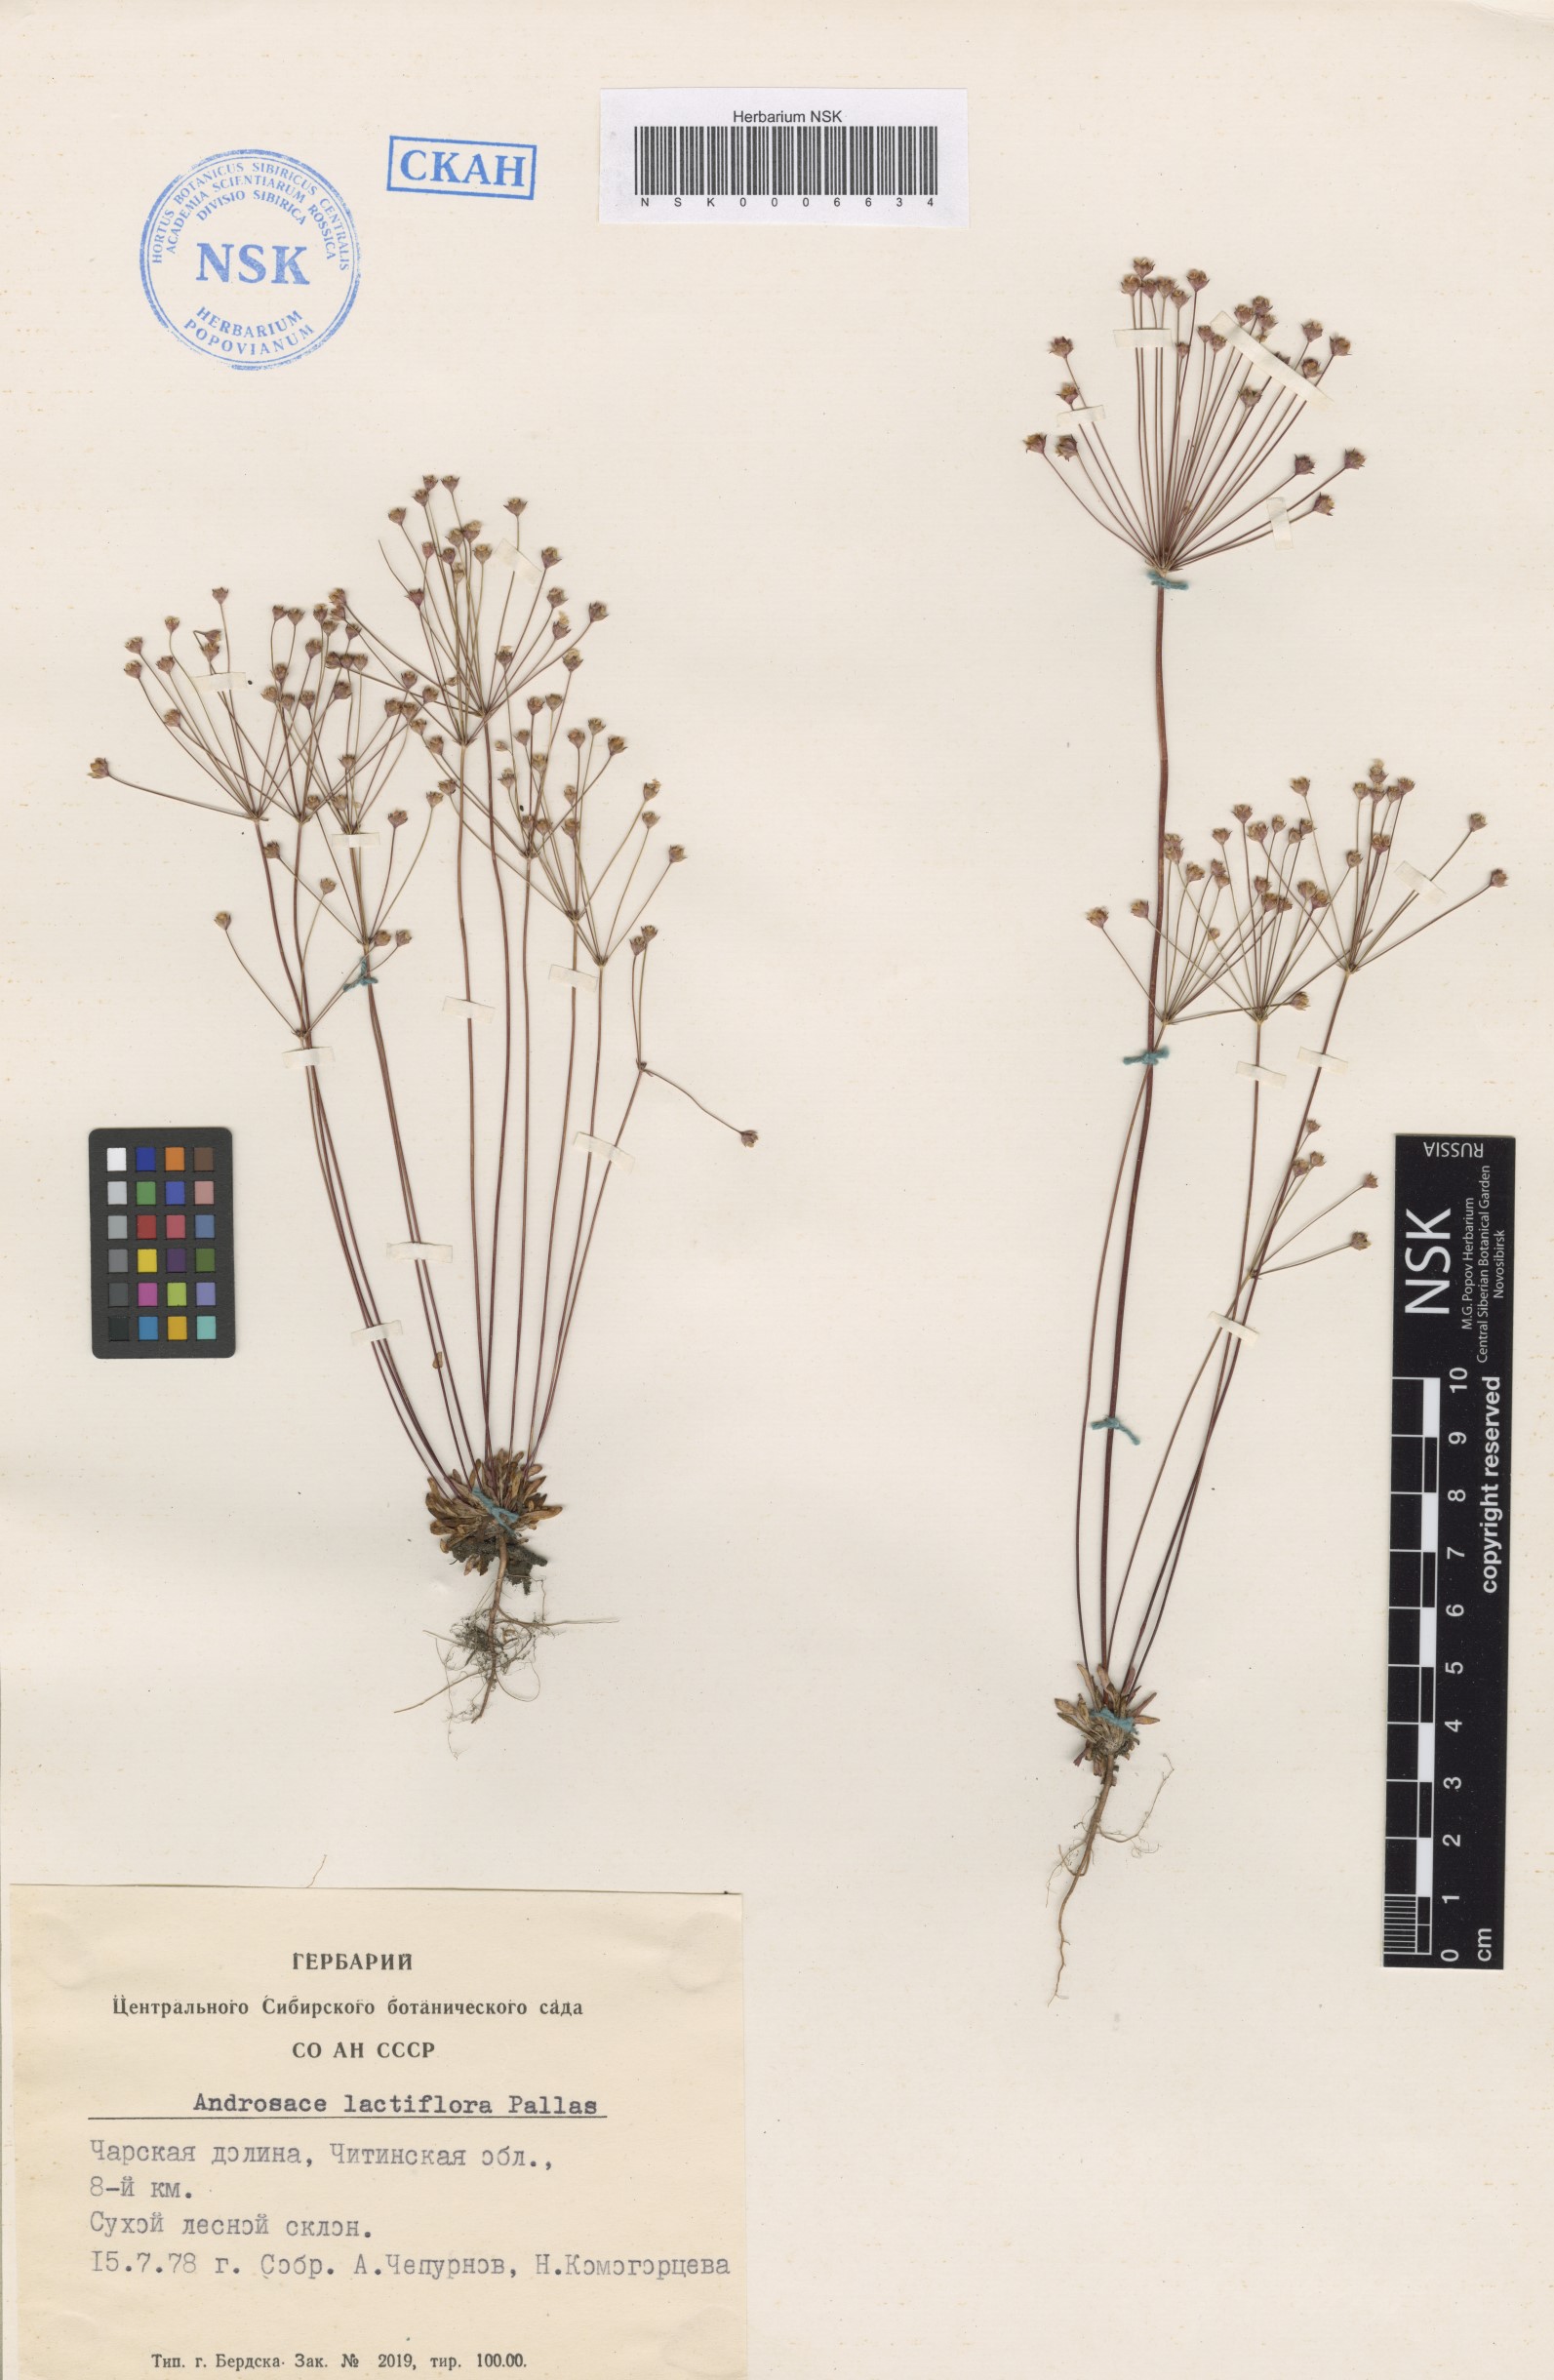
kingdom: Plantae
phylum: Tracheophyta
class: Magnoliopsida
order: Ericales
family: Primulaceae
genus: Androsace
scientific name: Androsace lactiflora
